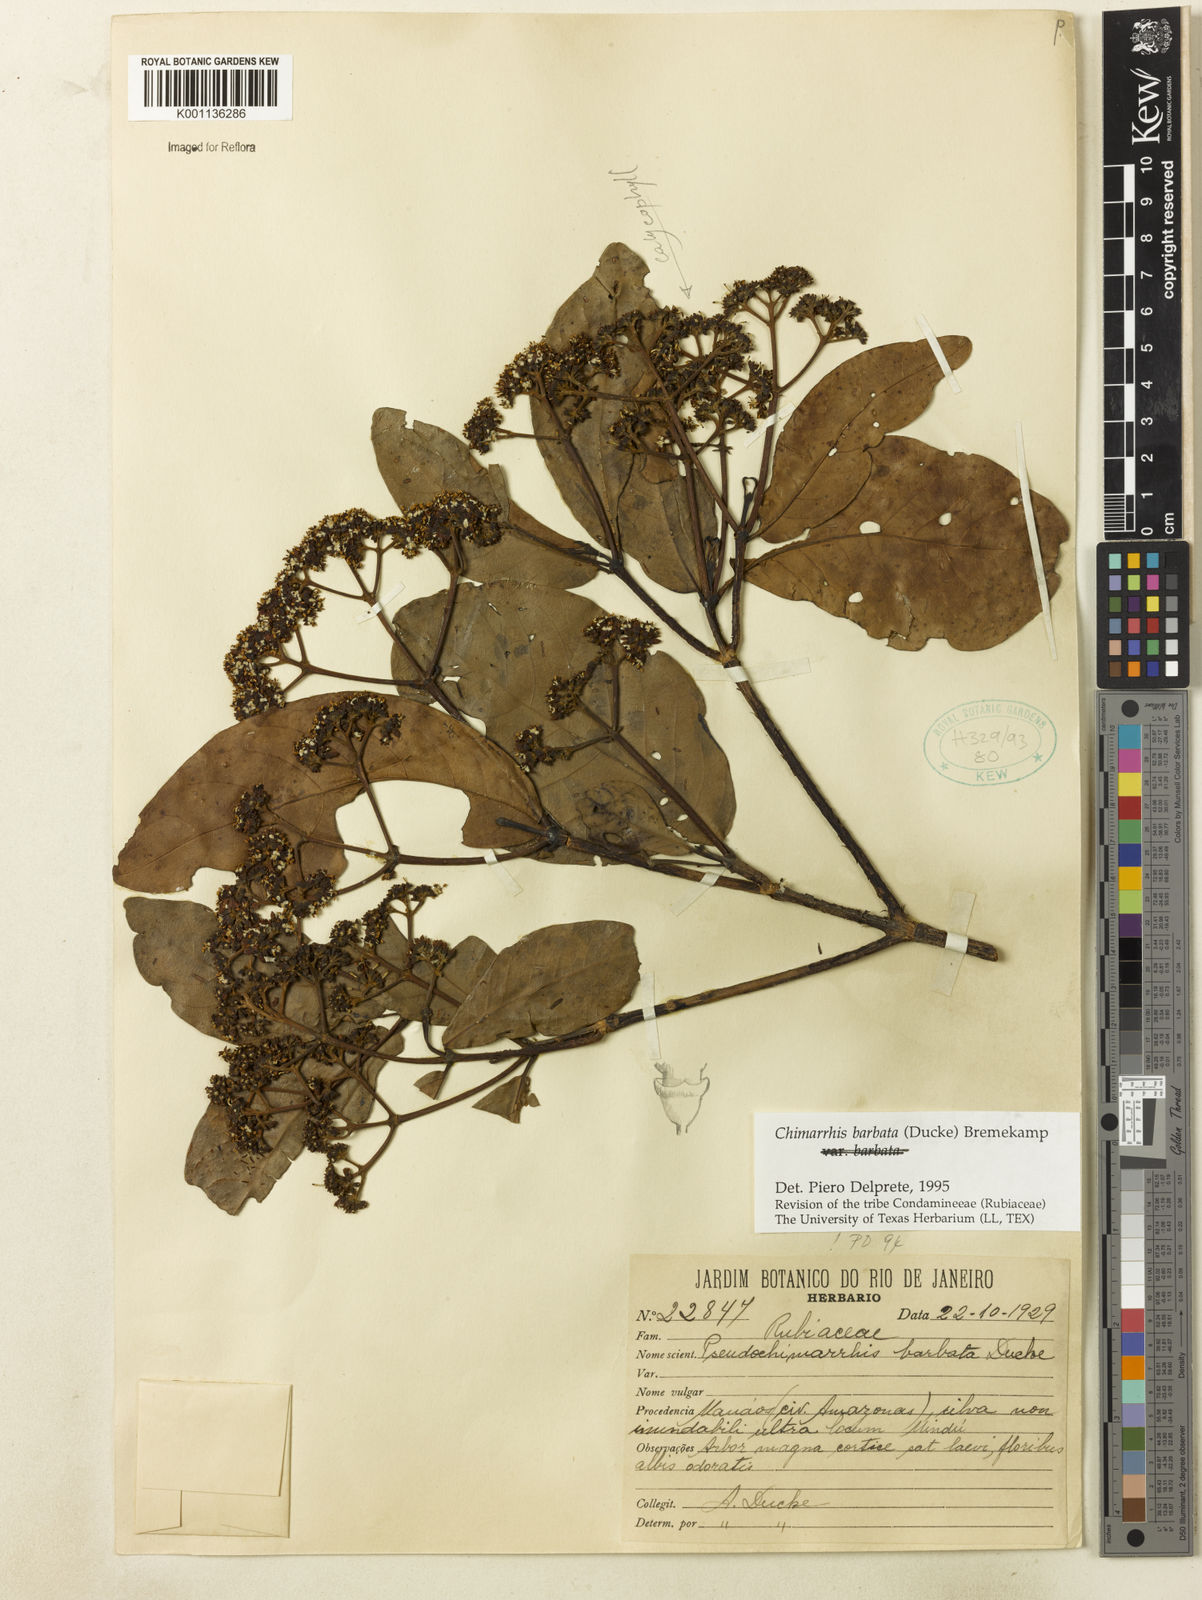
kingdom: Plantae
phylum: Tracheophyta
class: Magnoliopsida
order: Gentianales
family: Rubiaceae
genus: Chimarrhis
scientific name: Chimarrhis barbata
